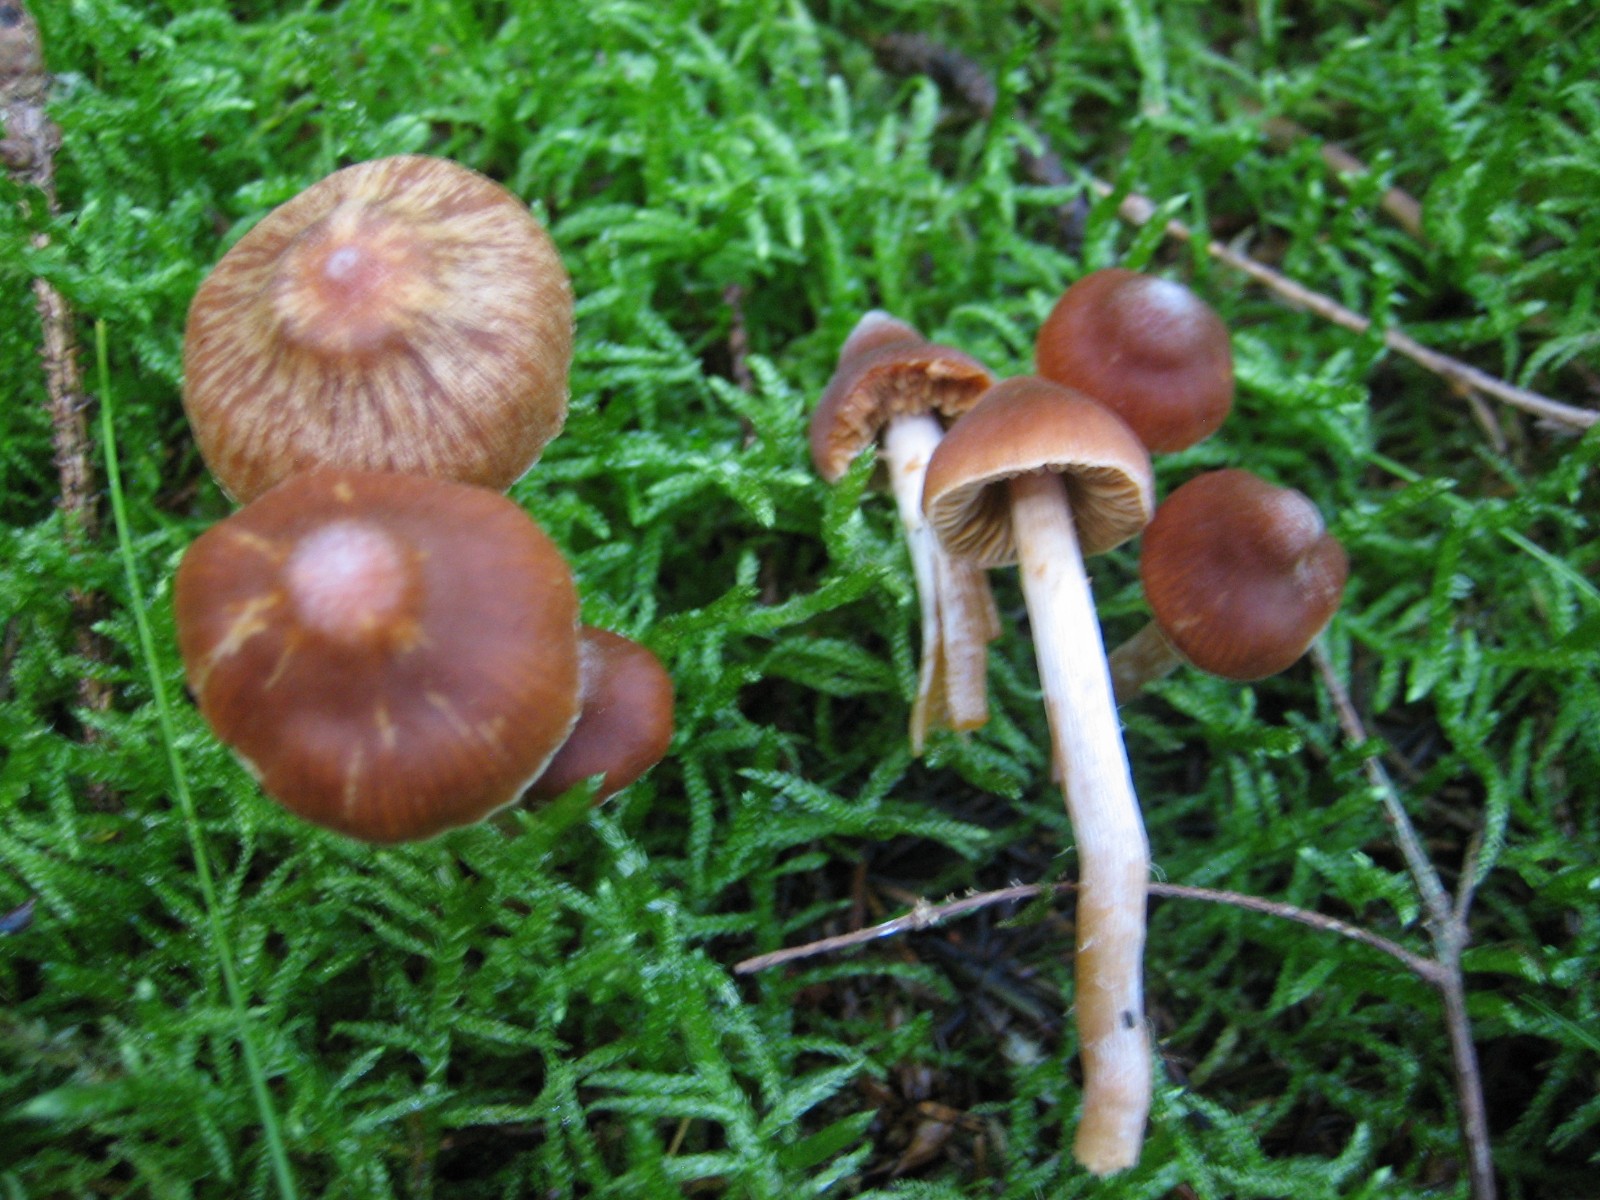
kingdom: Fungi
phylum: Basidiomycota
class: Agaricomycetes
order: Agaricales
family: Cortinariaceae
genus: Cortinarius
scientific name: Cortinarius
